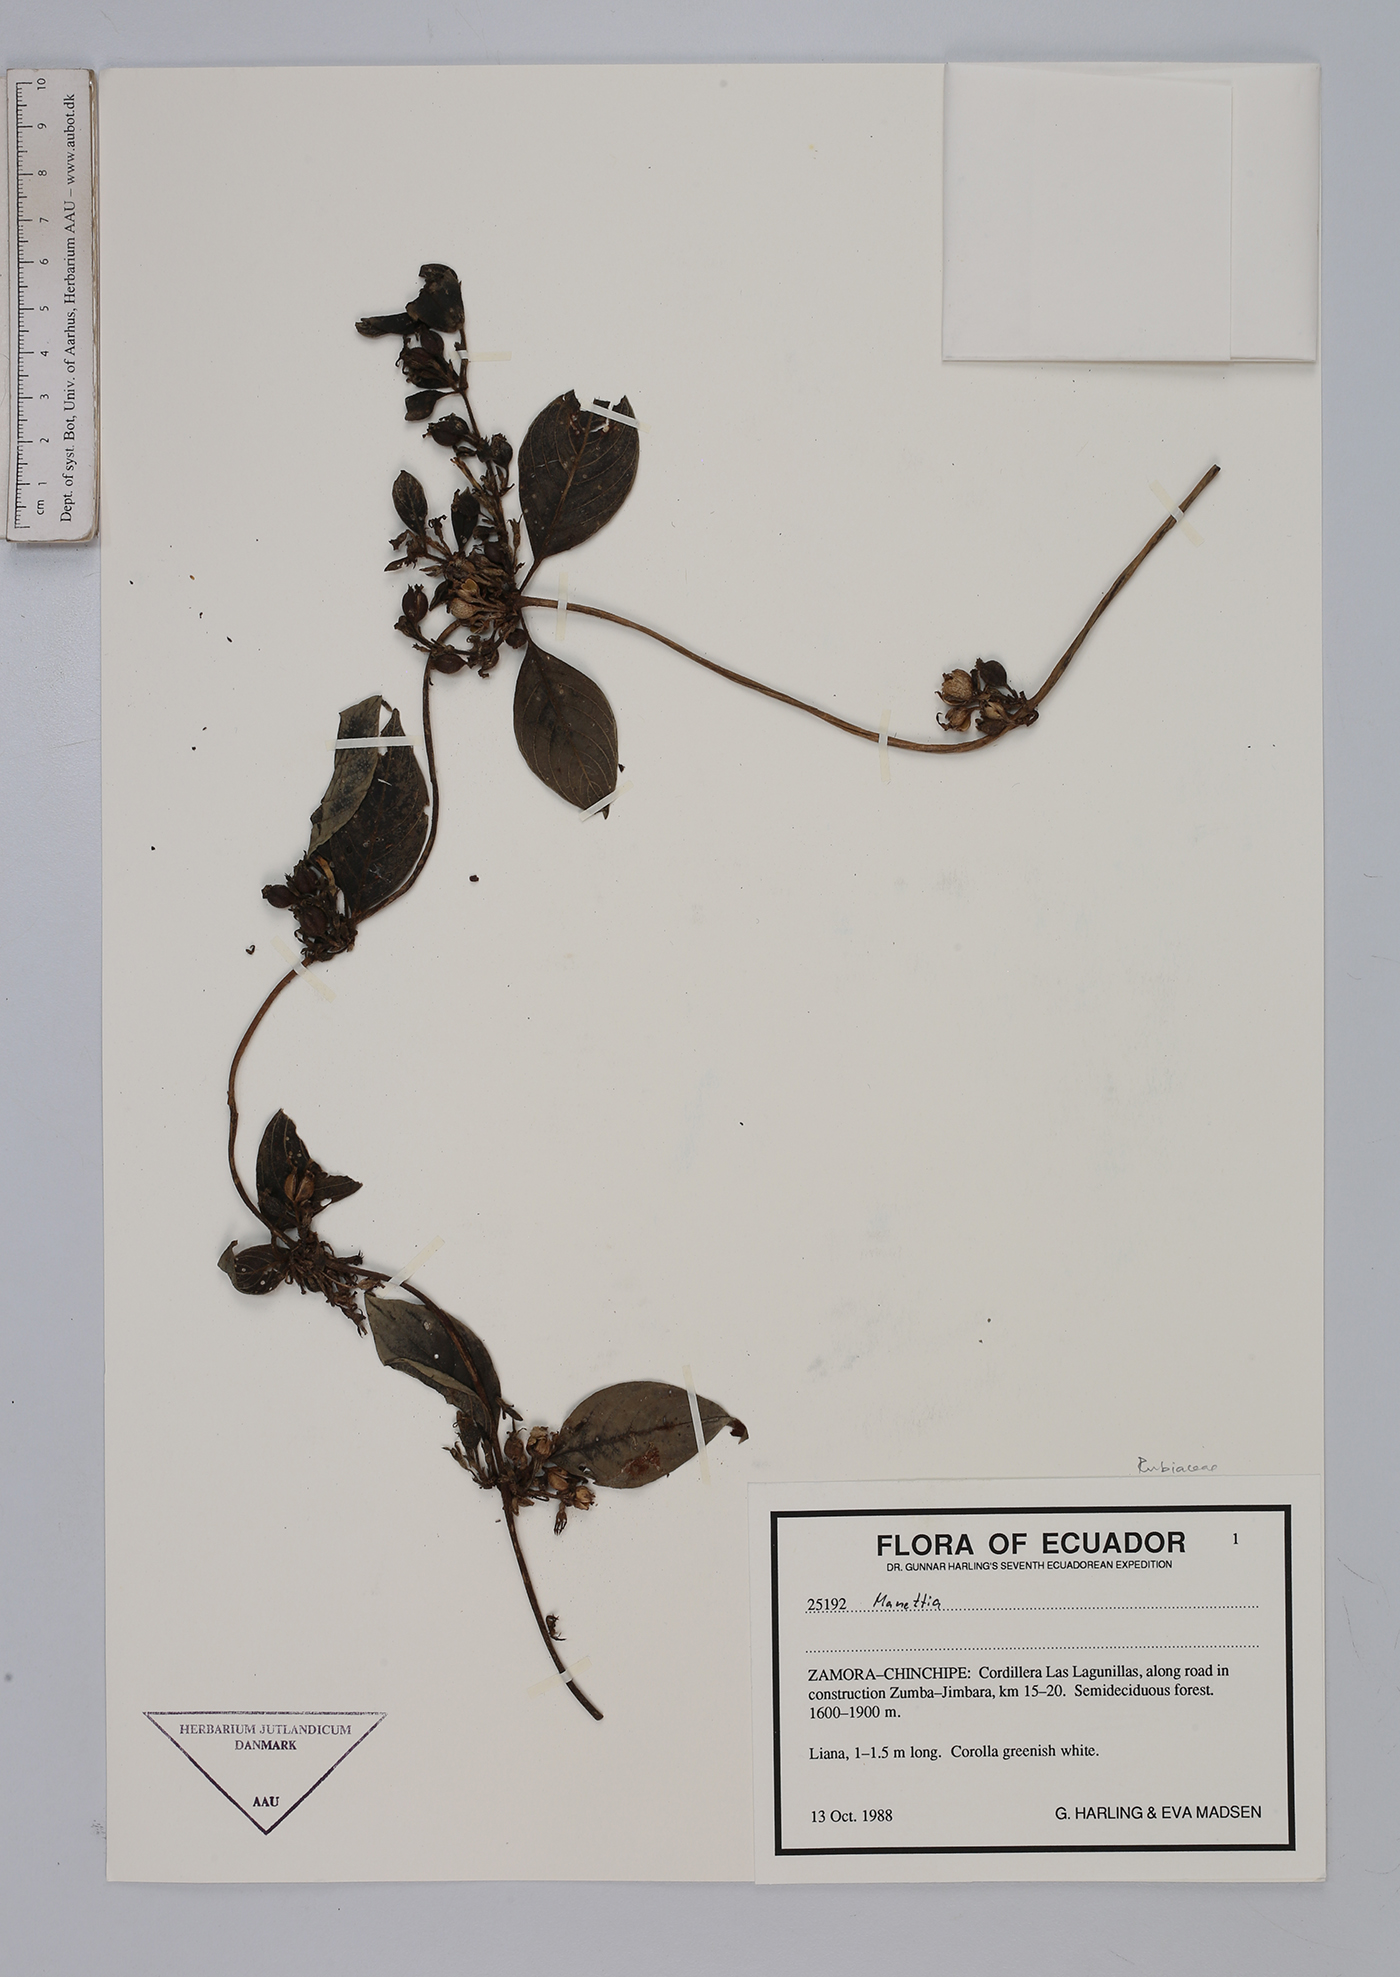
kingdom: Plantae
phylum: Tracheophyta
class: Magnoliopsida
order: Gentianales
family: Rubiaceae
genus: Manettia
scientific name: Manettia
